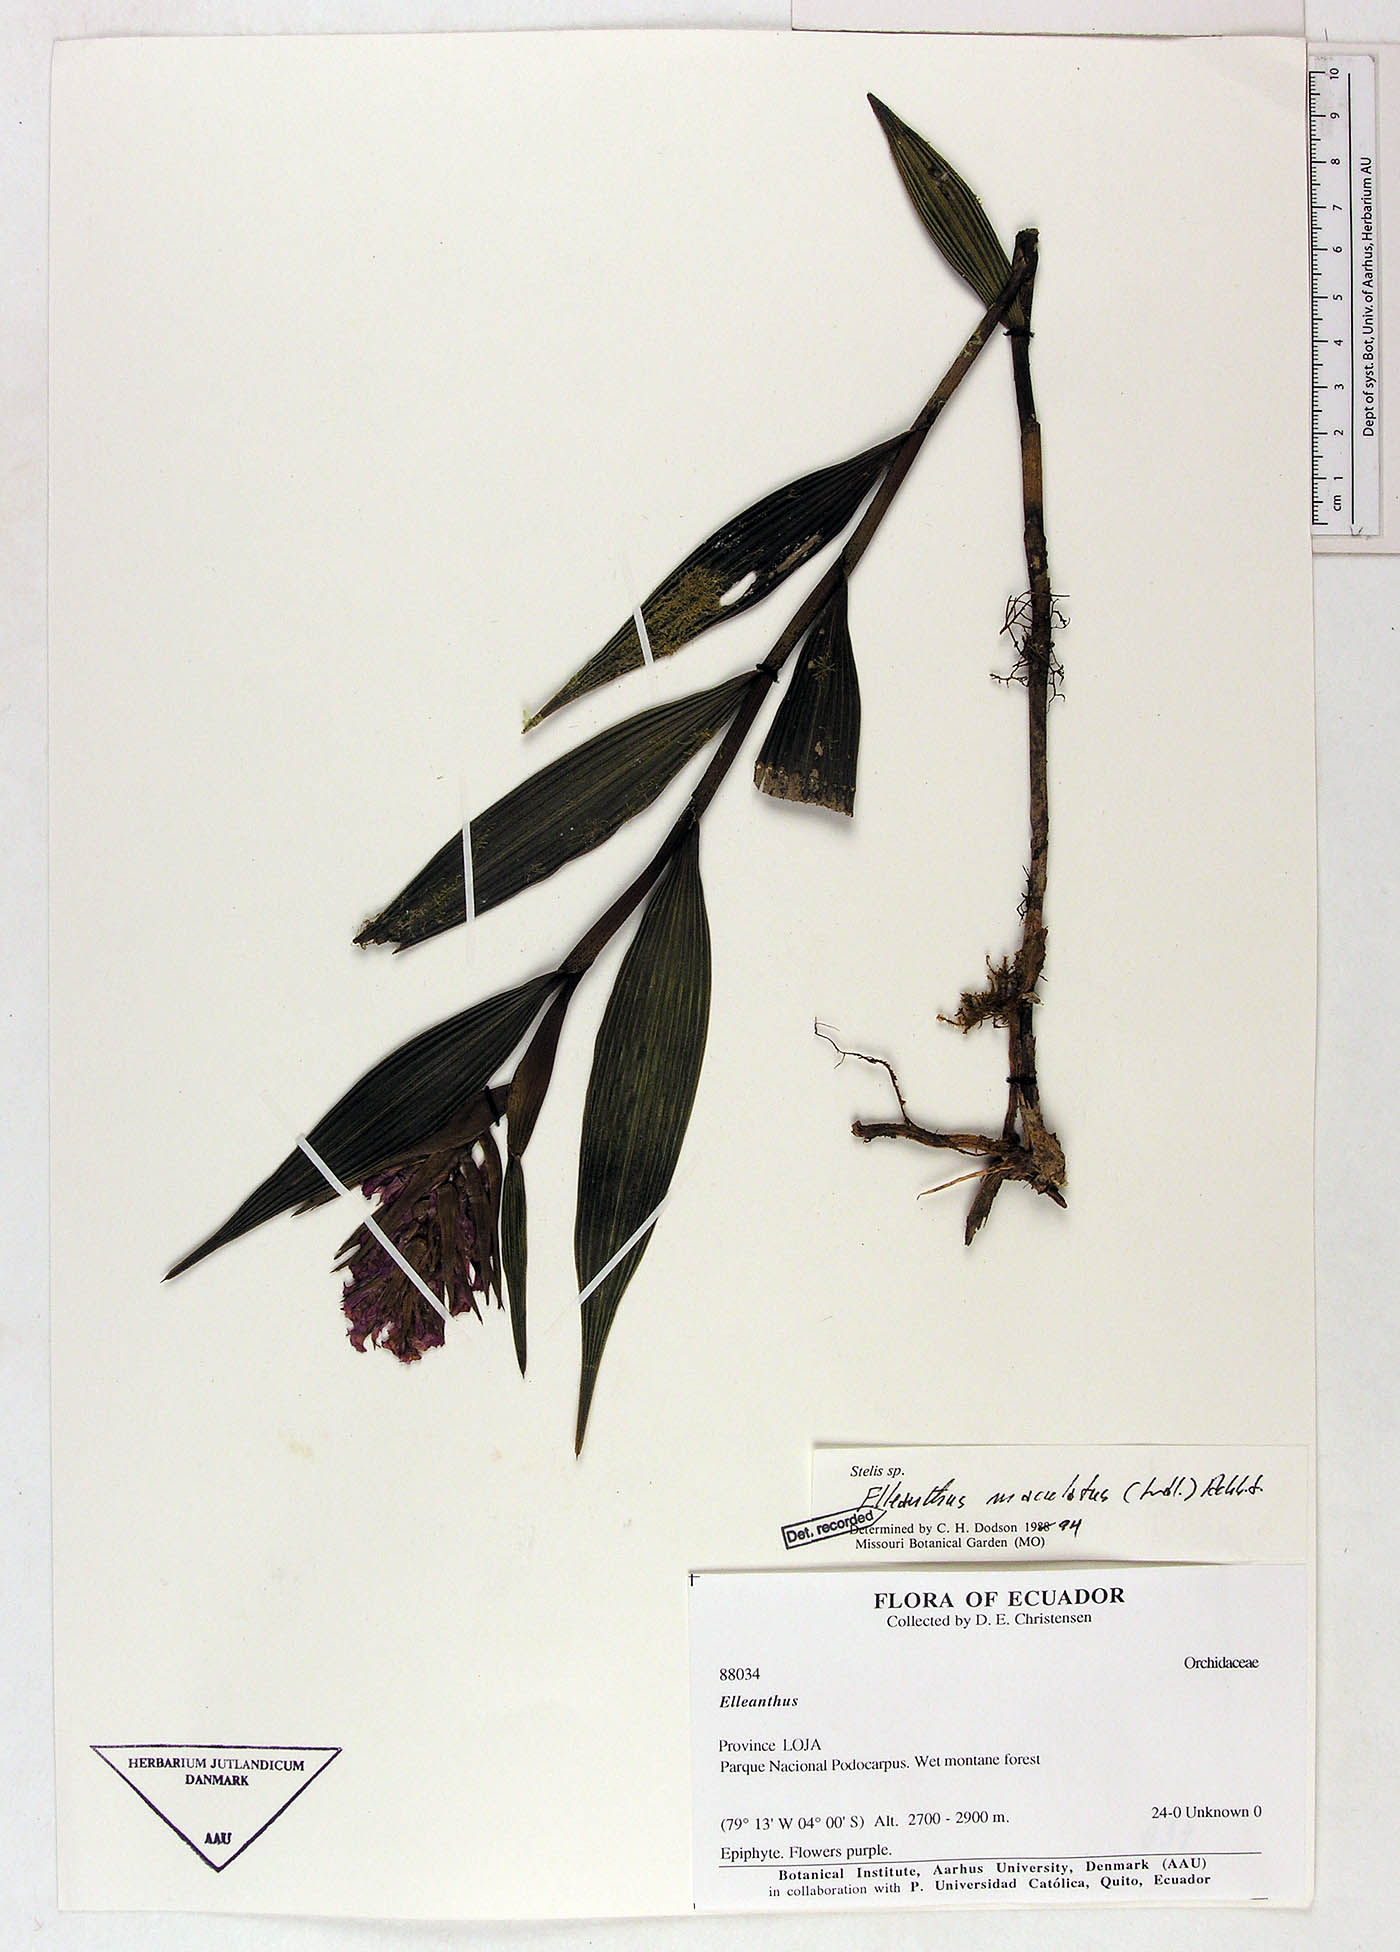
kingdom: Plantae
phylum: Tracheophyta
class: Liliopsida
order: Asparagales
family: Orchidaceae
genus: Elleanthus
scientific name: Elleanthus maculatus
